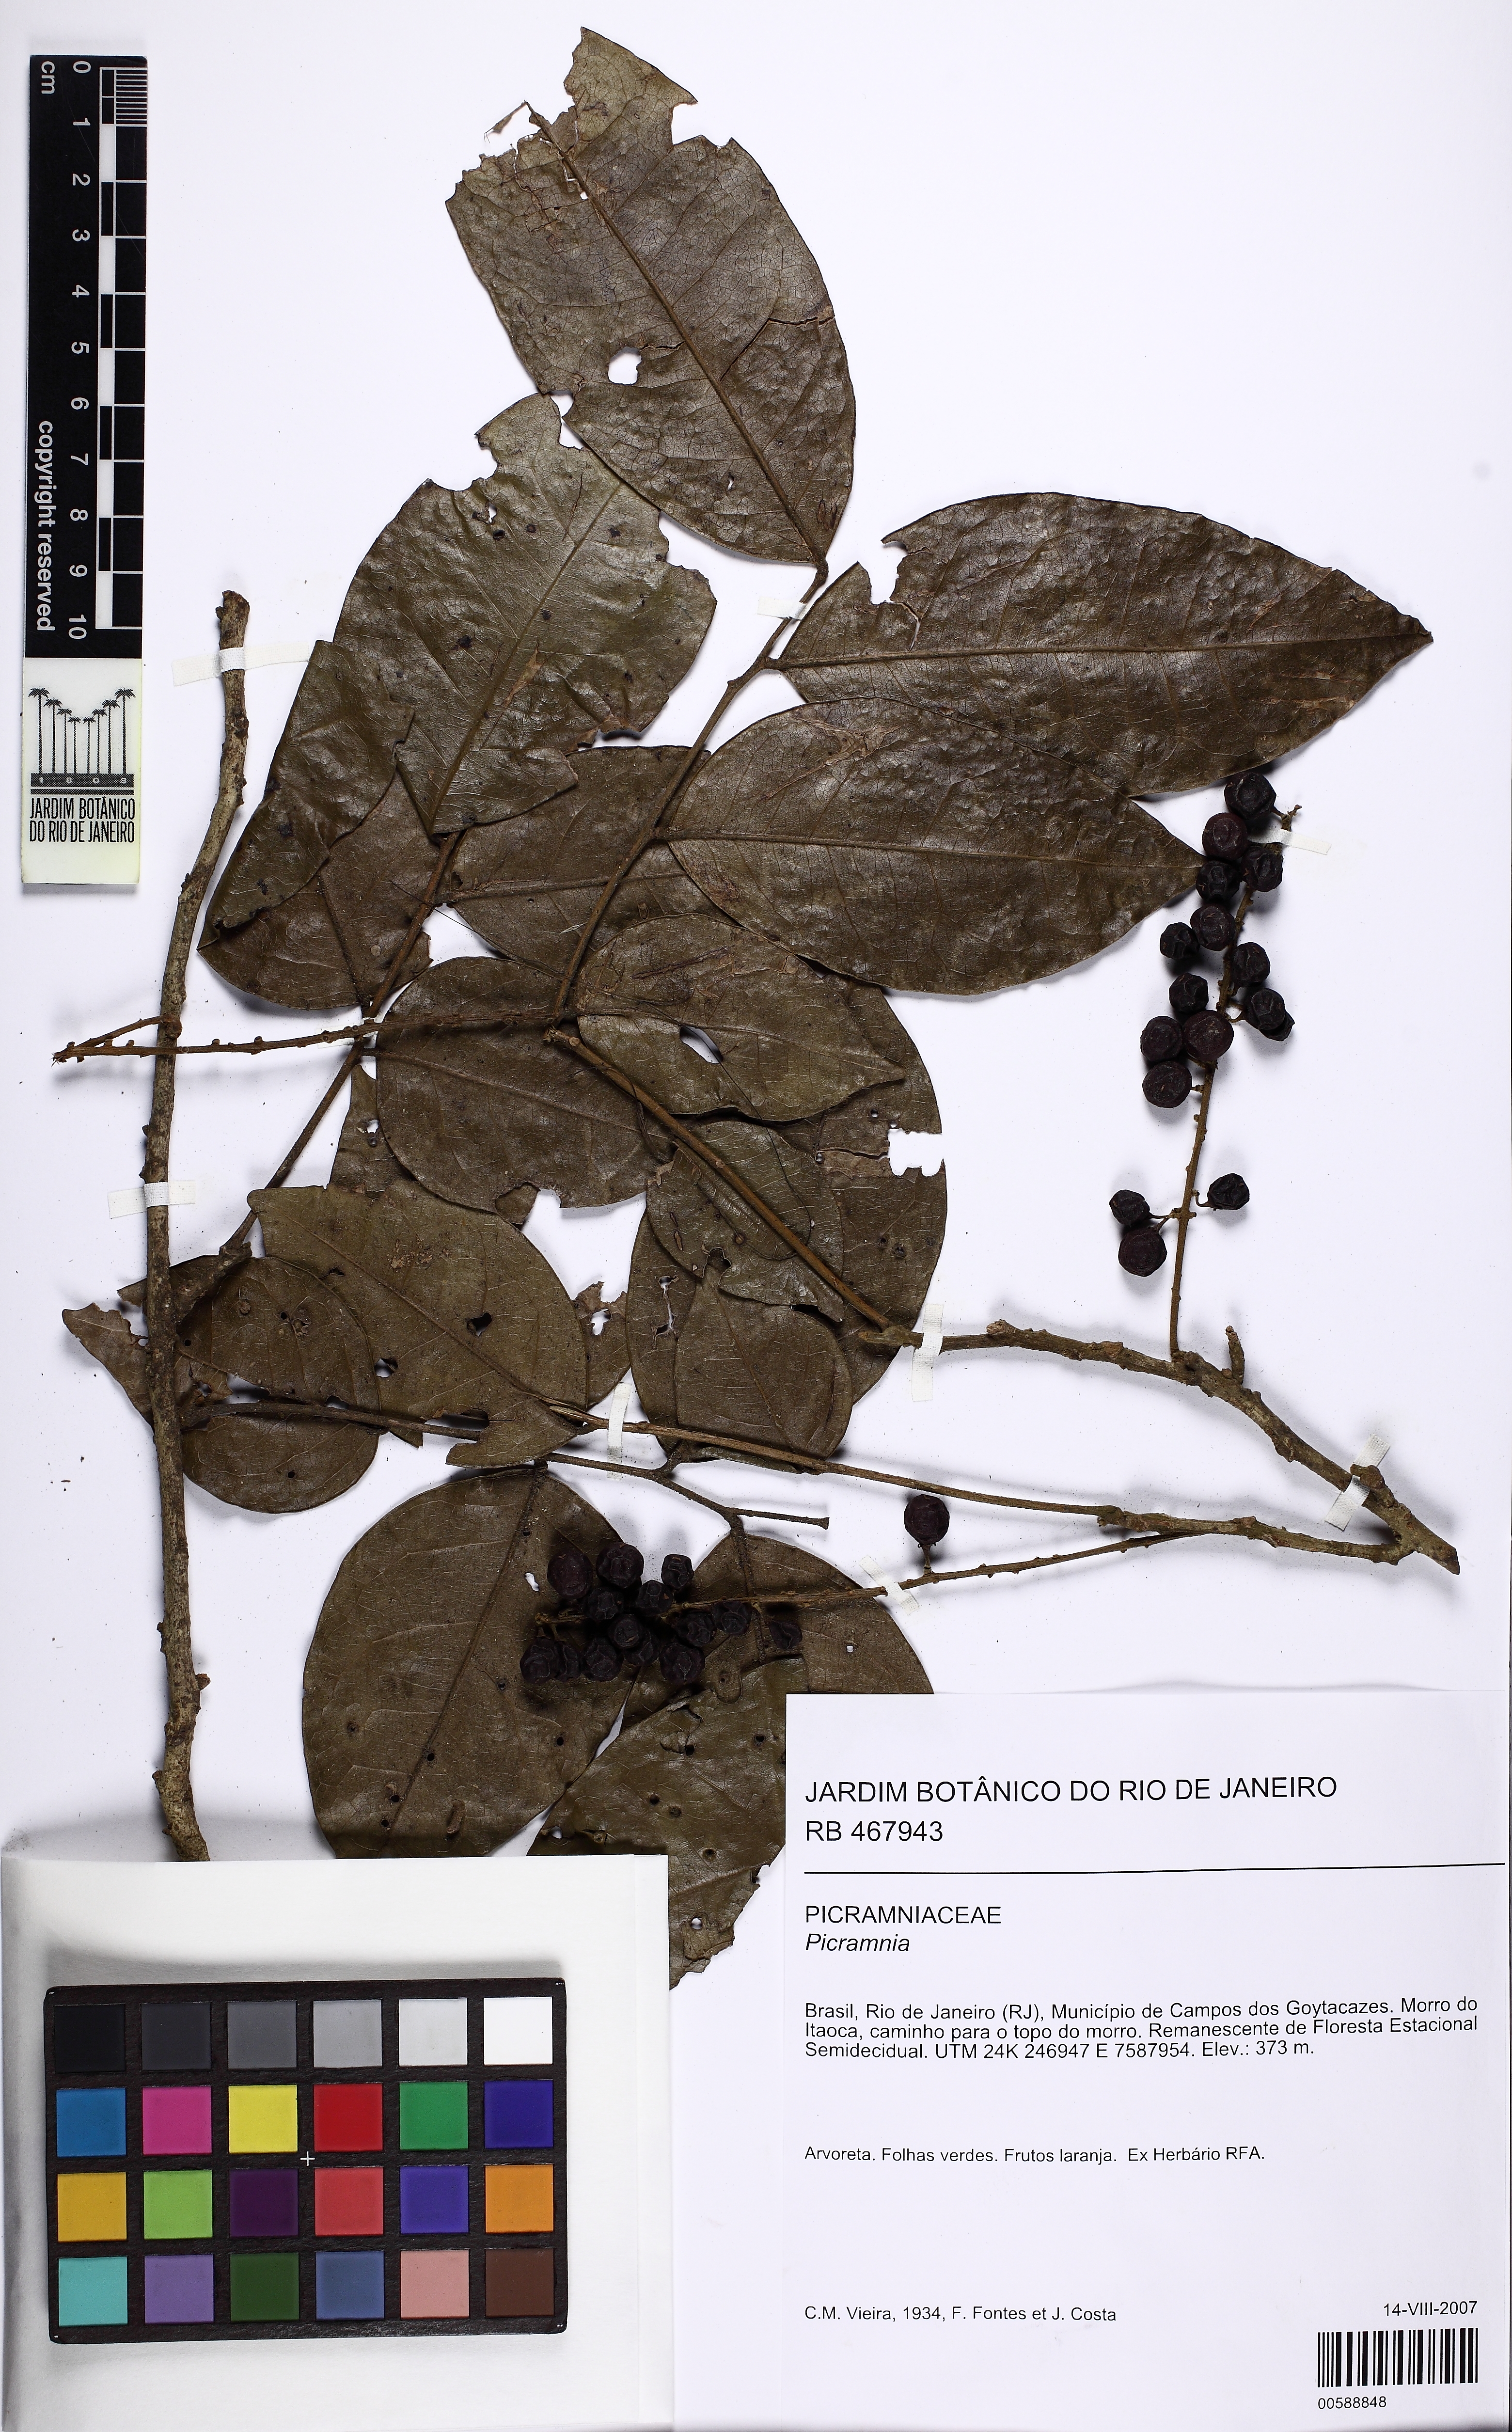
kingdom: Plantae
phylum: Tracheophyta
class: Magnoliopsida
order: Picramniales
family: Picramniaceae
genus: Picramnia
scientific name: Picramnia ramiflora
